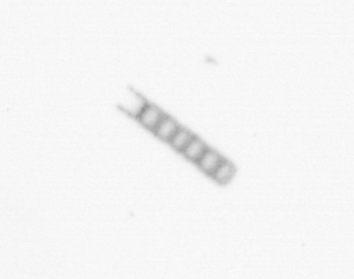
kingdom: Chromista
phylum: Ochrophyta
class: Bacillariophyceae
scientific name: Bacillariophyceae
